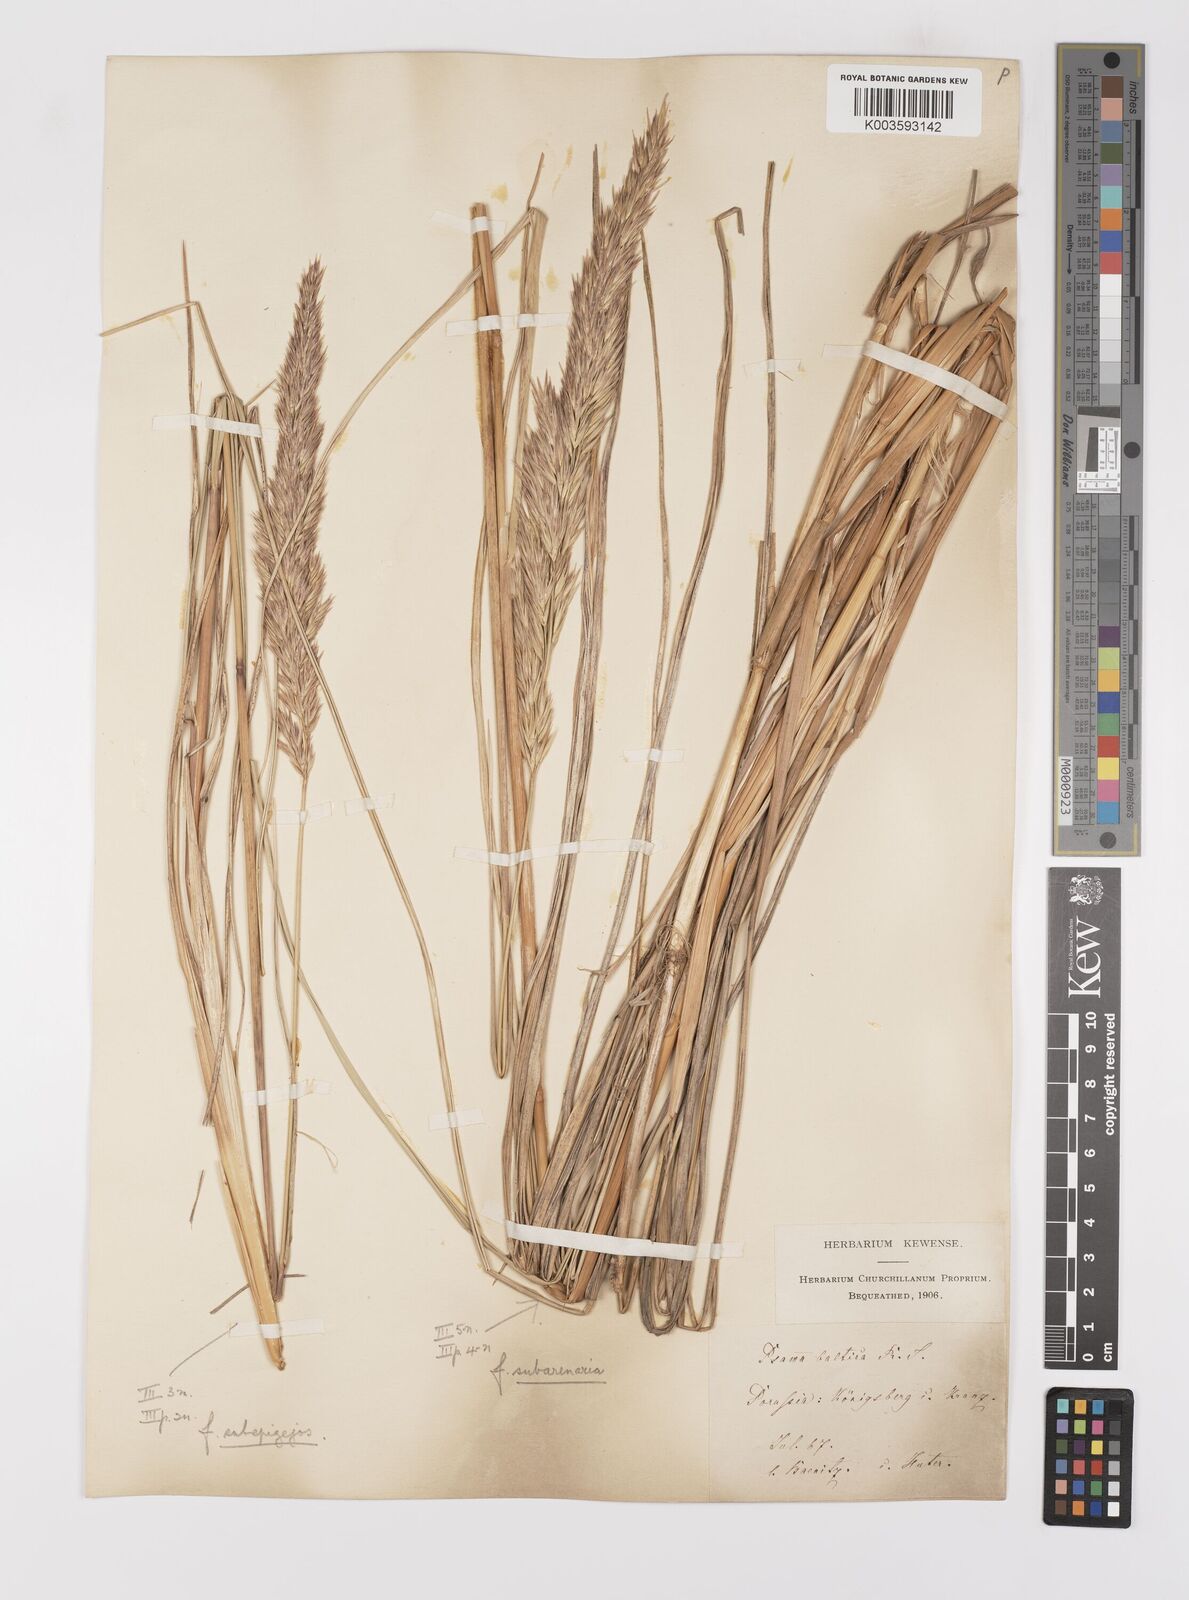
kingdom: Plantae
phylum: Tracheophyta
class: Liliopsida
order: Poales
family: Poaceae
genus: Calamagrostis
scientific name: Calamagrostis baltica
